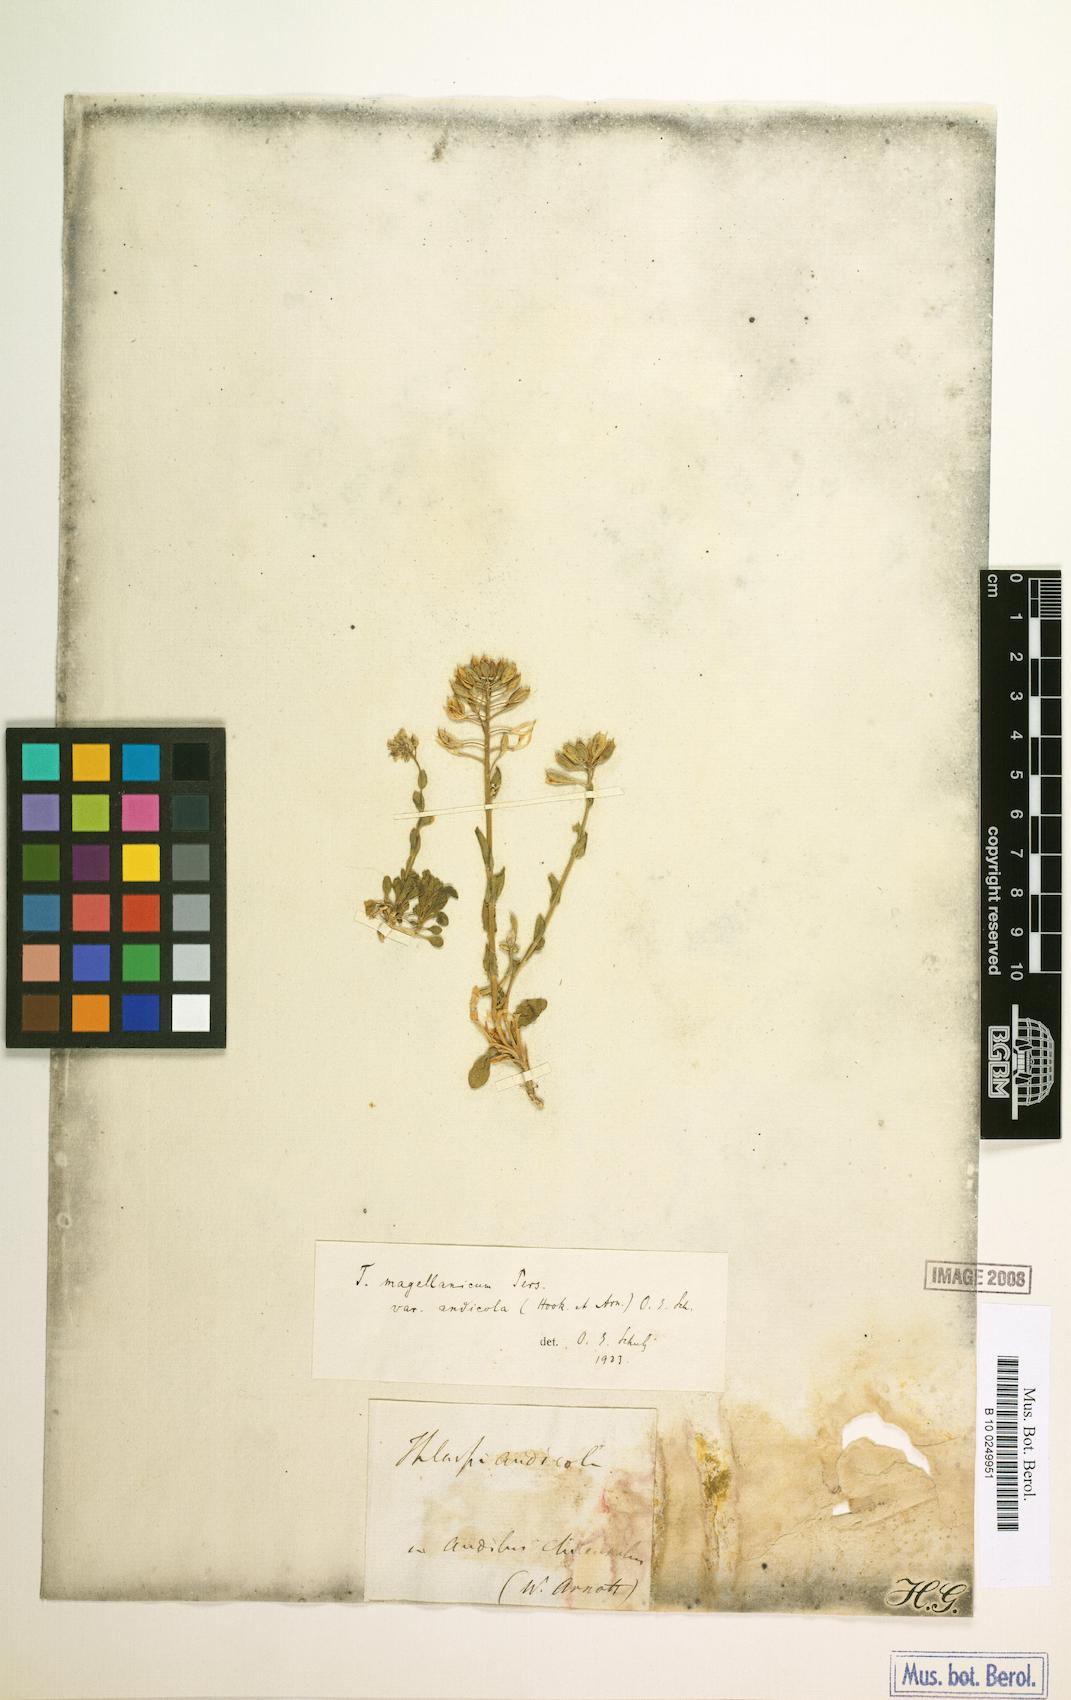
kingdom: Plantae
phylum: Tracheophyta
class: Magnoliopsida
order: Brassicales
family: Brassicaceae
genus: Noccaea
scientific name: Noccaea magellanica
